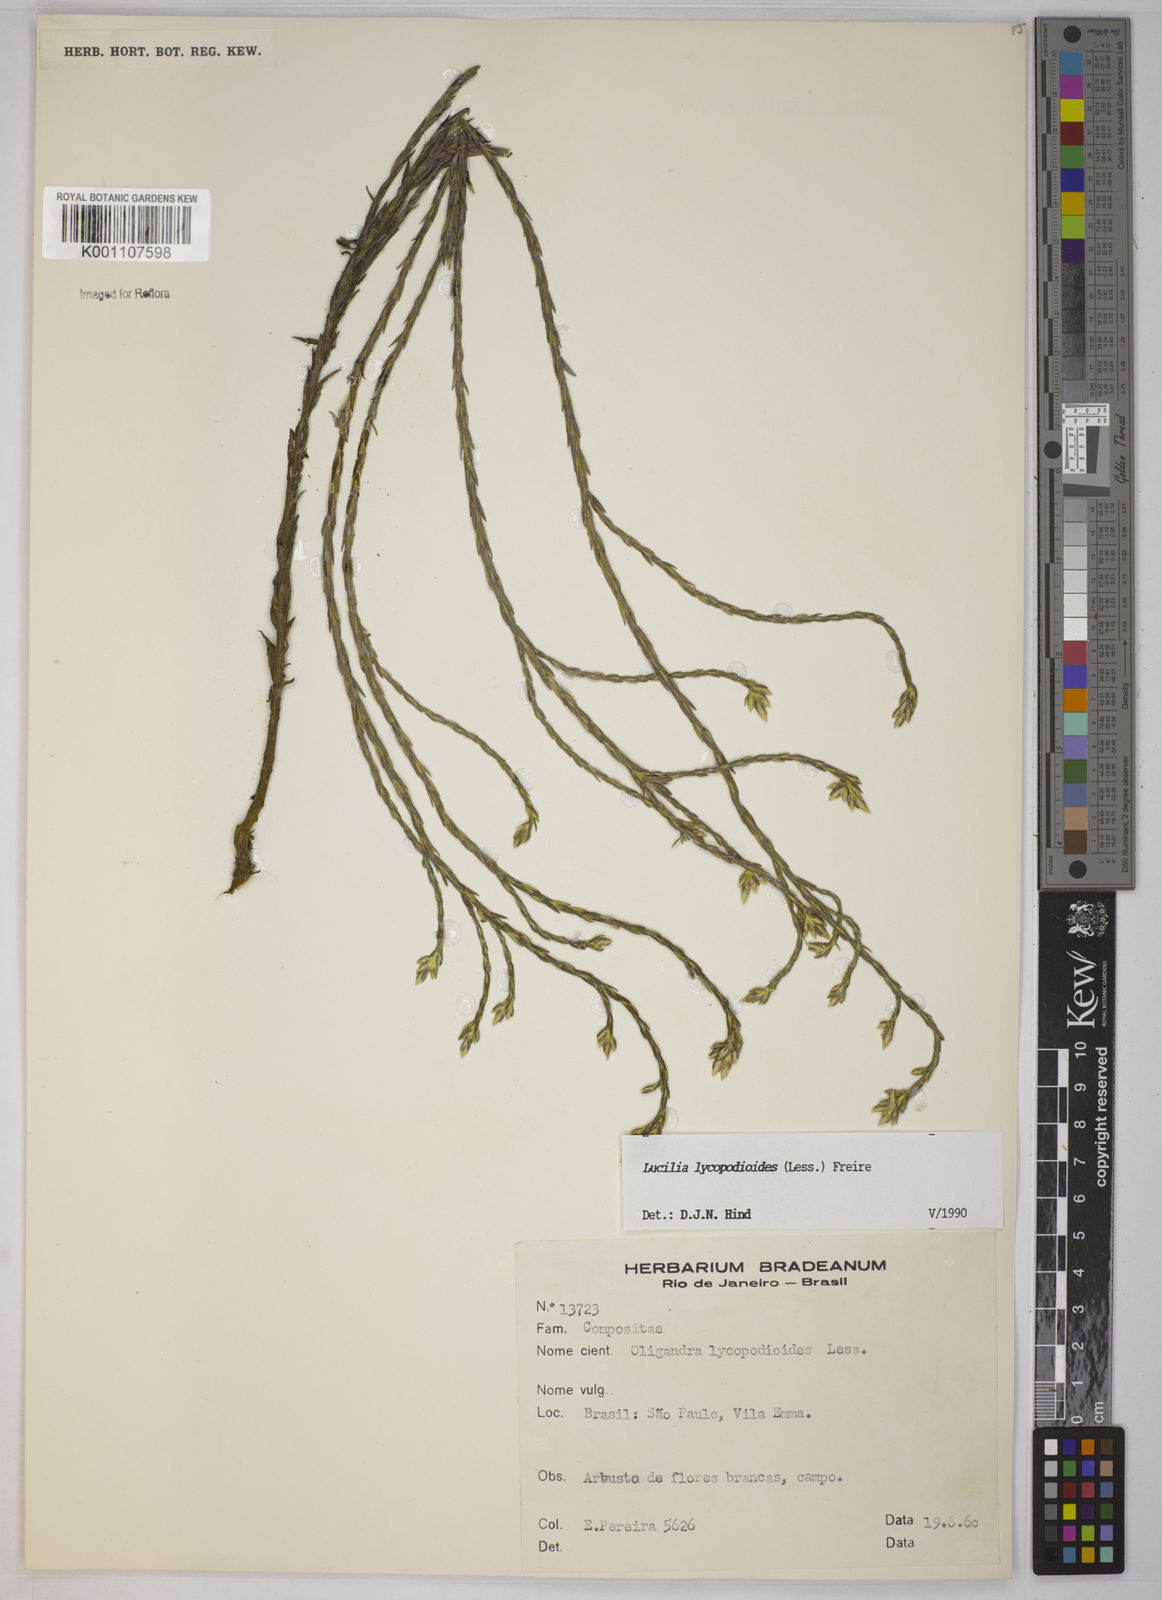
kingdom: Plantae
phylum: Tracheophyta
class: Magnoliopsida
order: Asterales
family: Asteraceae
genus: Lucilia
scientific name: Lucilia lycopodioides
